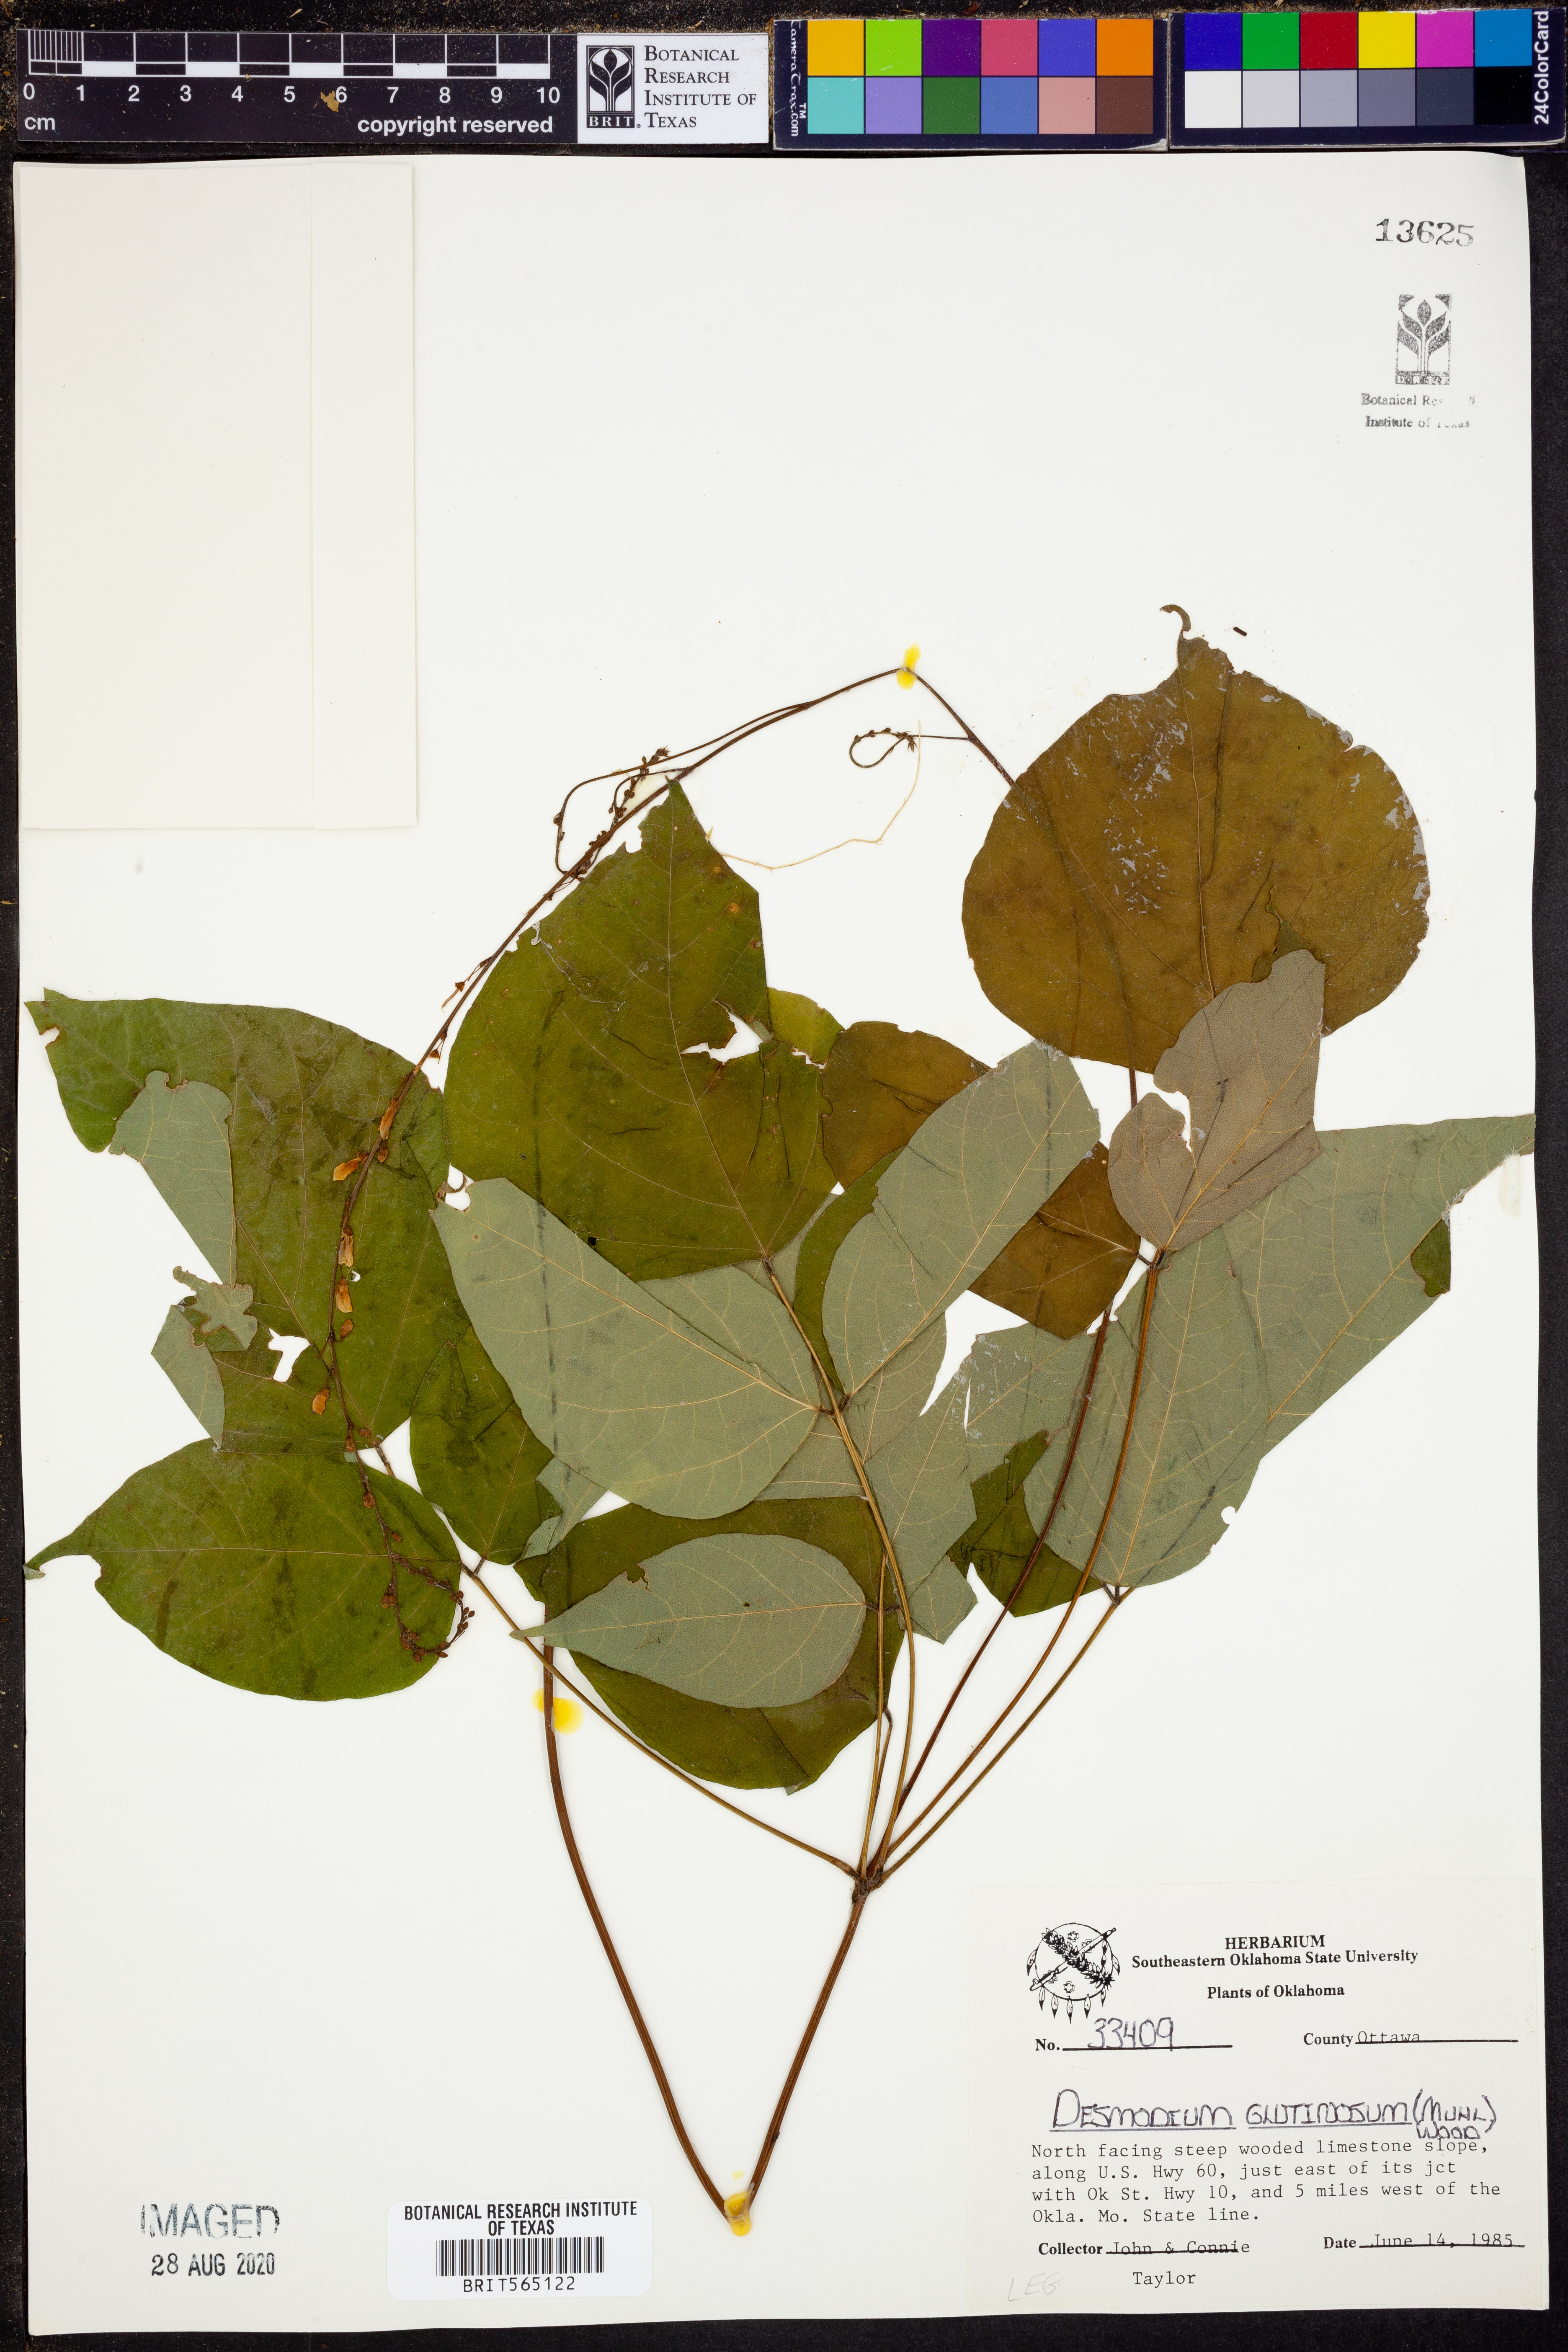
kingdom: Plantae
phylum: Tracheophyta
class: Magnoliopsida
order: Fabales
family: Fabaceae
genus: Hylodesmum
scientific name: Hylodesmum glutinosum
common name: Clustered-leaved tick-trefoil
